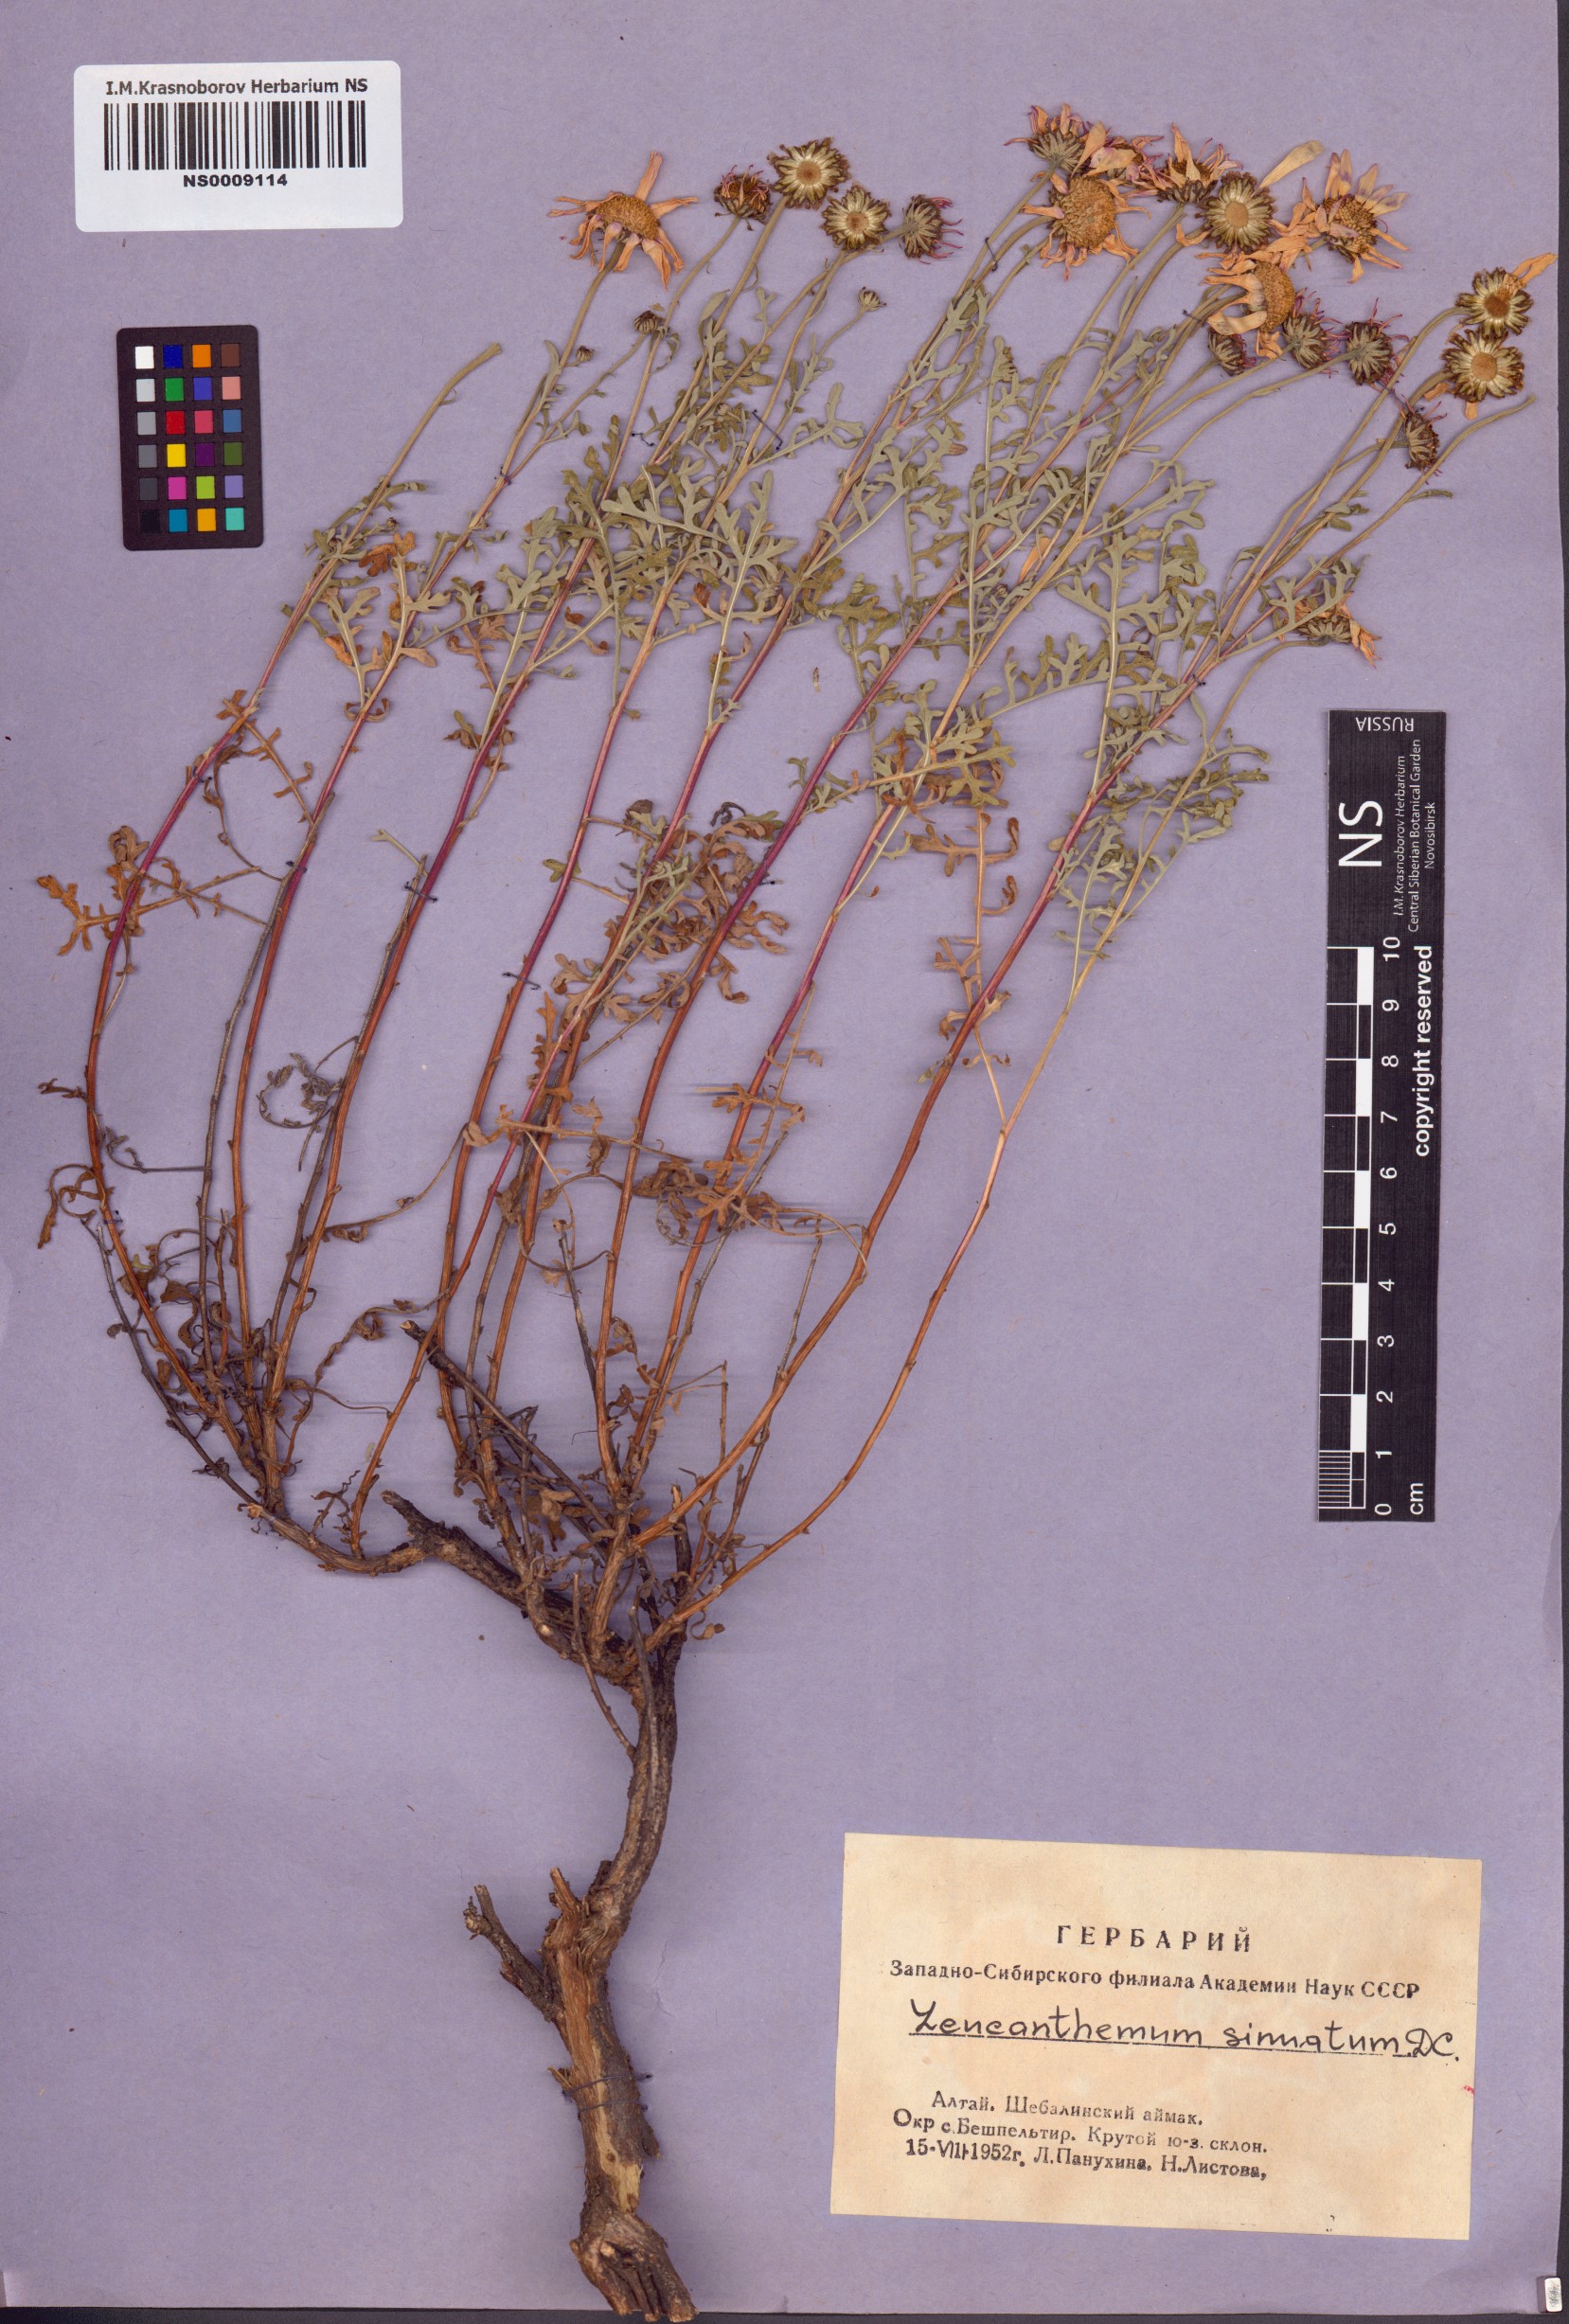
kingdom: Plantae
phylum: Tracheophyta
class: Magnoliopsida
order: Asterales
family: Asteraceae
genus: Chrysanthemum
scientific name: Chrysanthemum sinuatum
